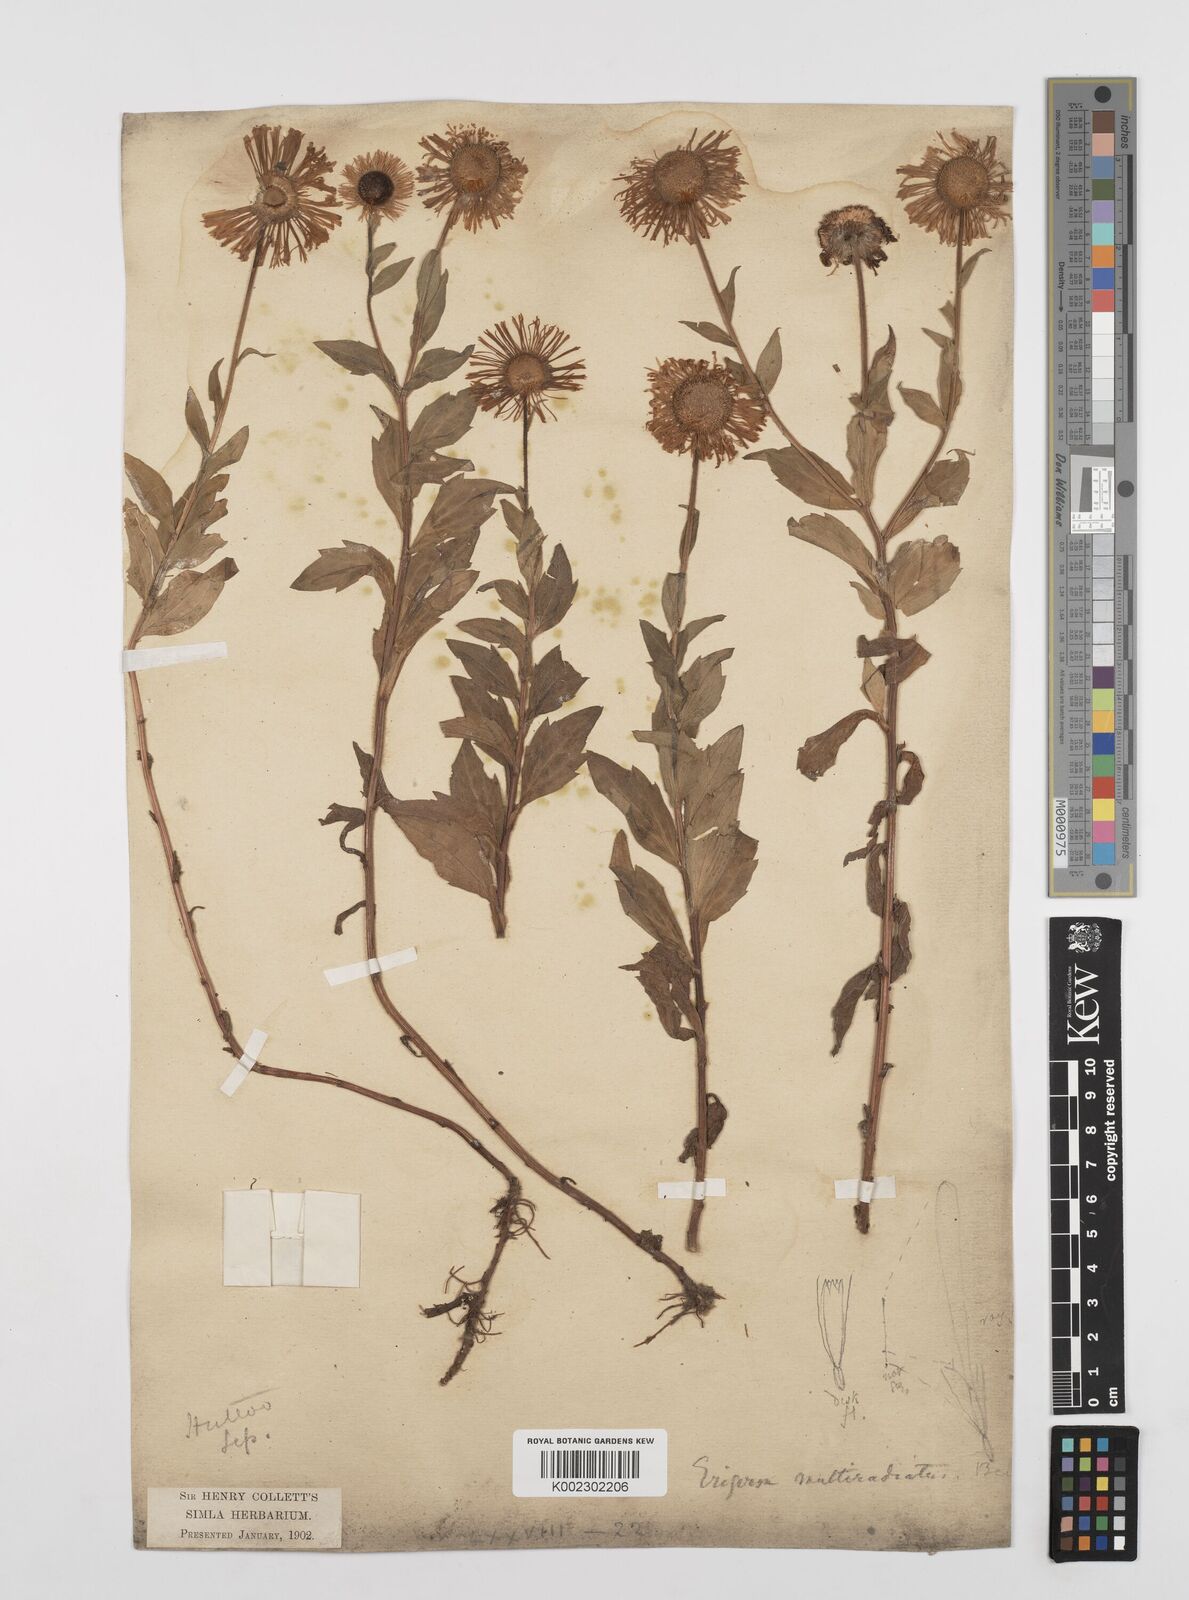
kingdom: Plantae
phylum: Tracheophyta
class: Magnoliopsida
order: Asterales
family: Asteraceae
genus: Erigeron
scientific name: Erigeron multiradiatus
